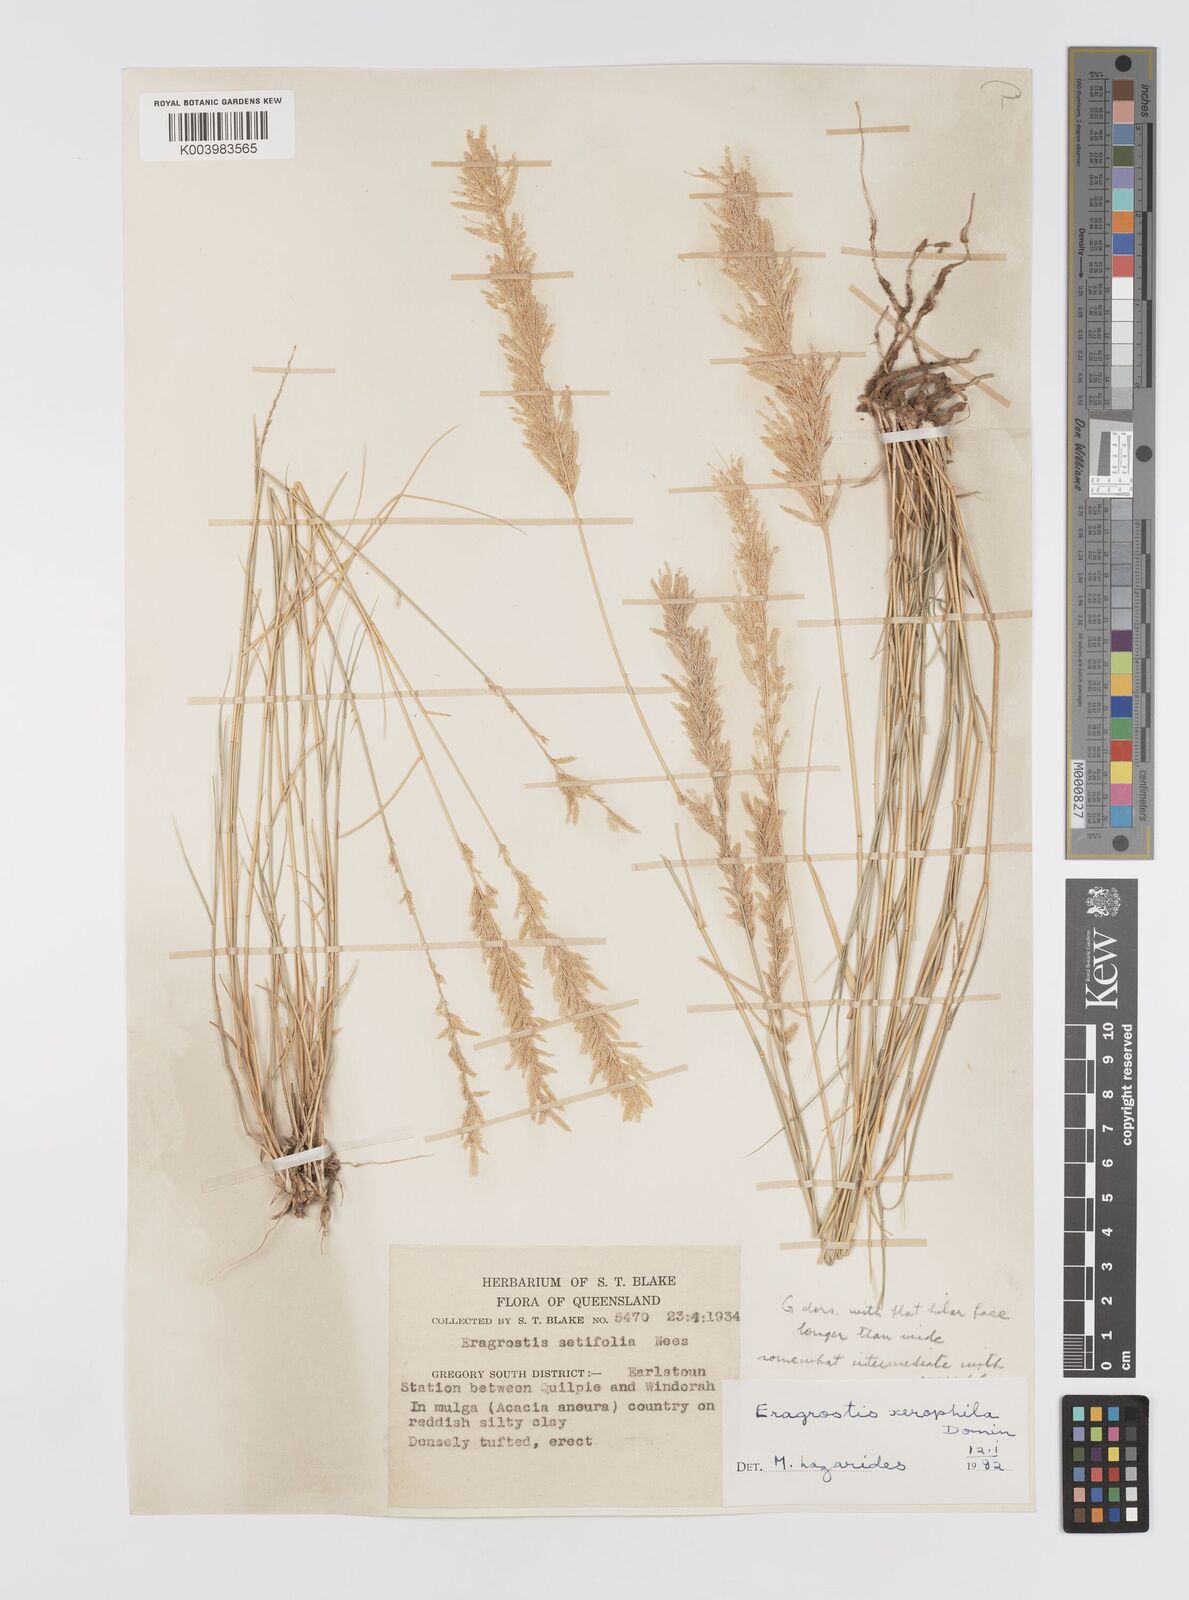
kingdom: Plantae
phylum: Tracheophyta
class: Liliopsida
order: Poales
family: Poaceae
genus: Eragrostis
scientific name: Eragrostis xerophila
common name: Wire wandarrie grass
